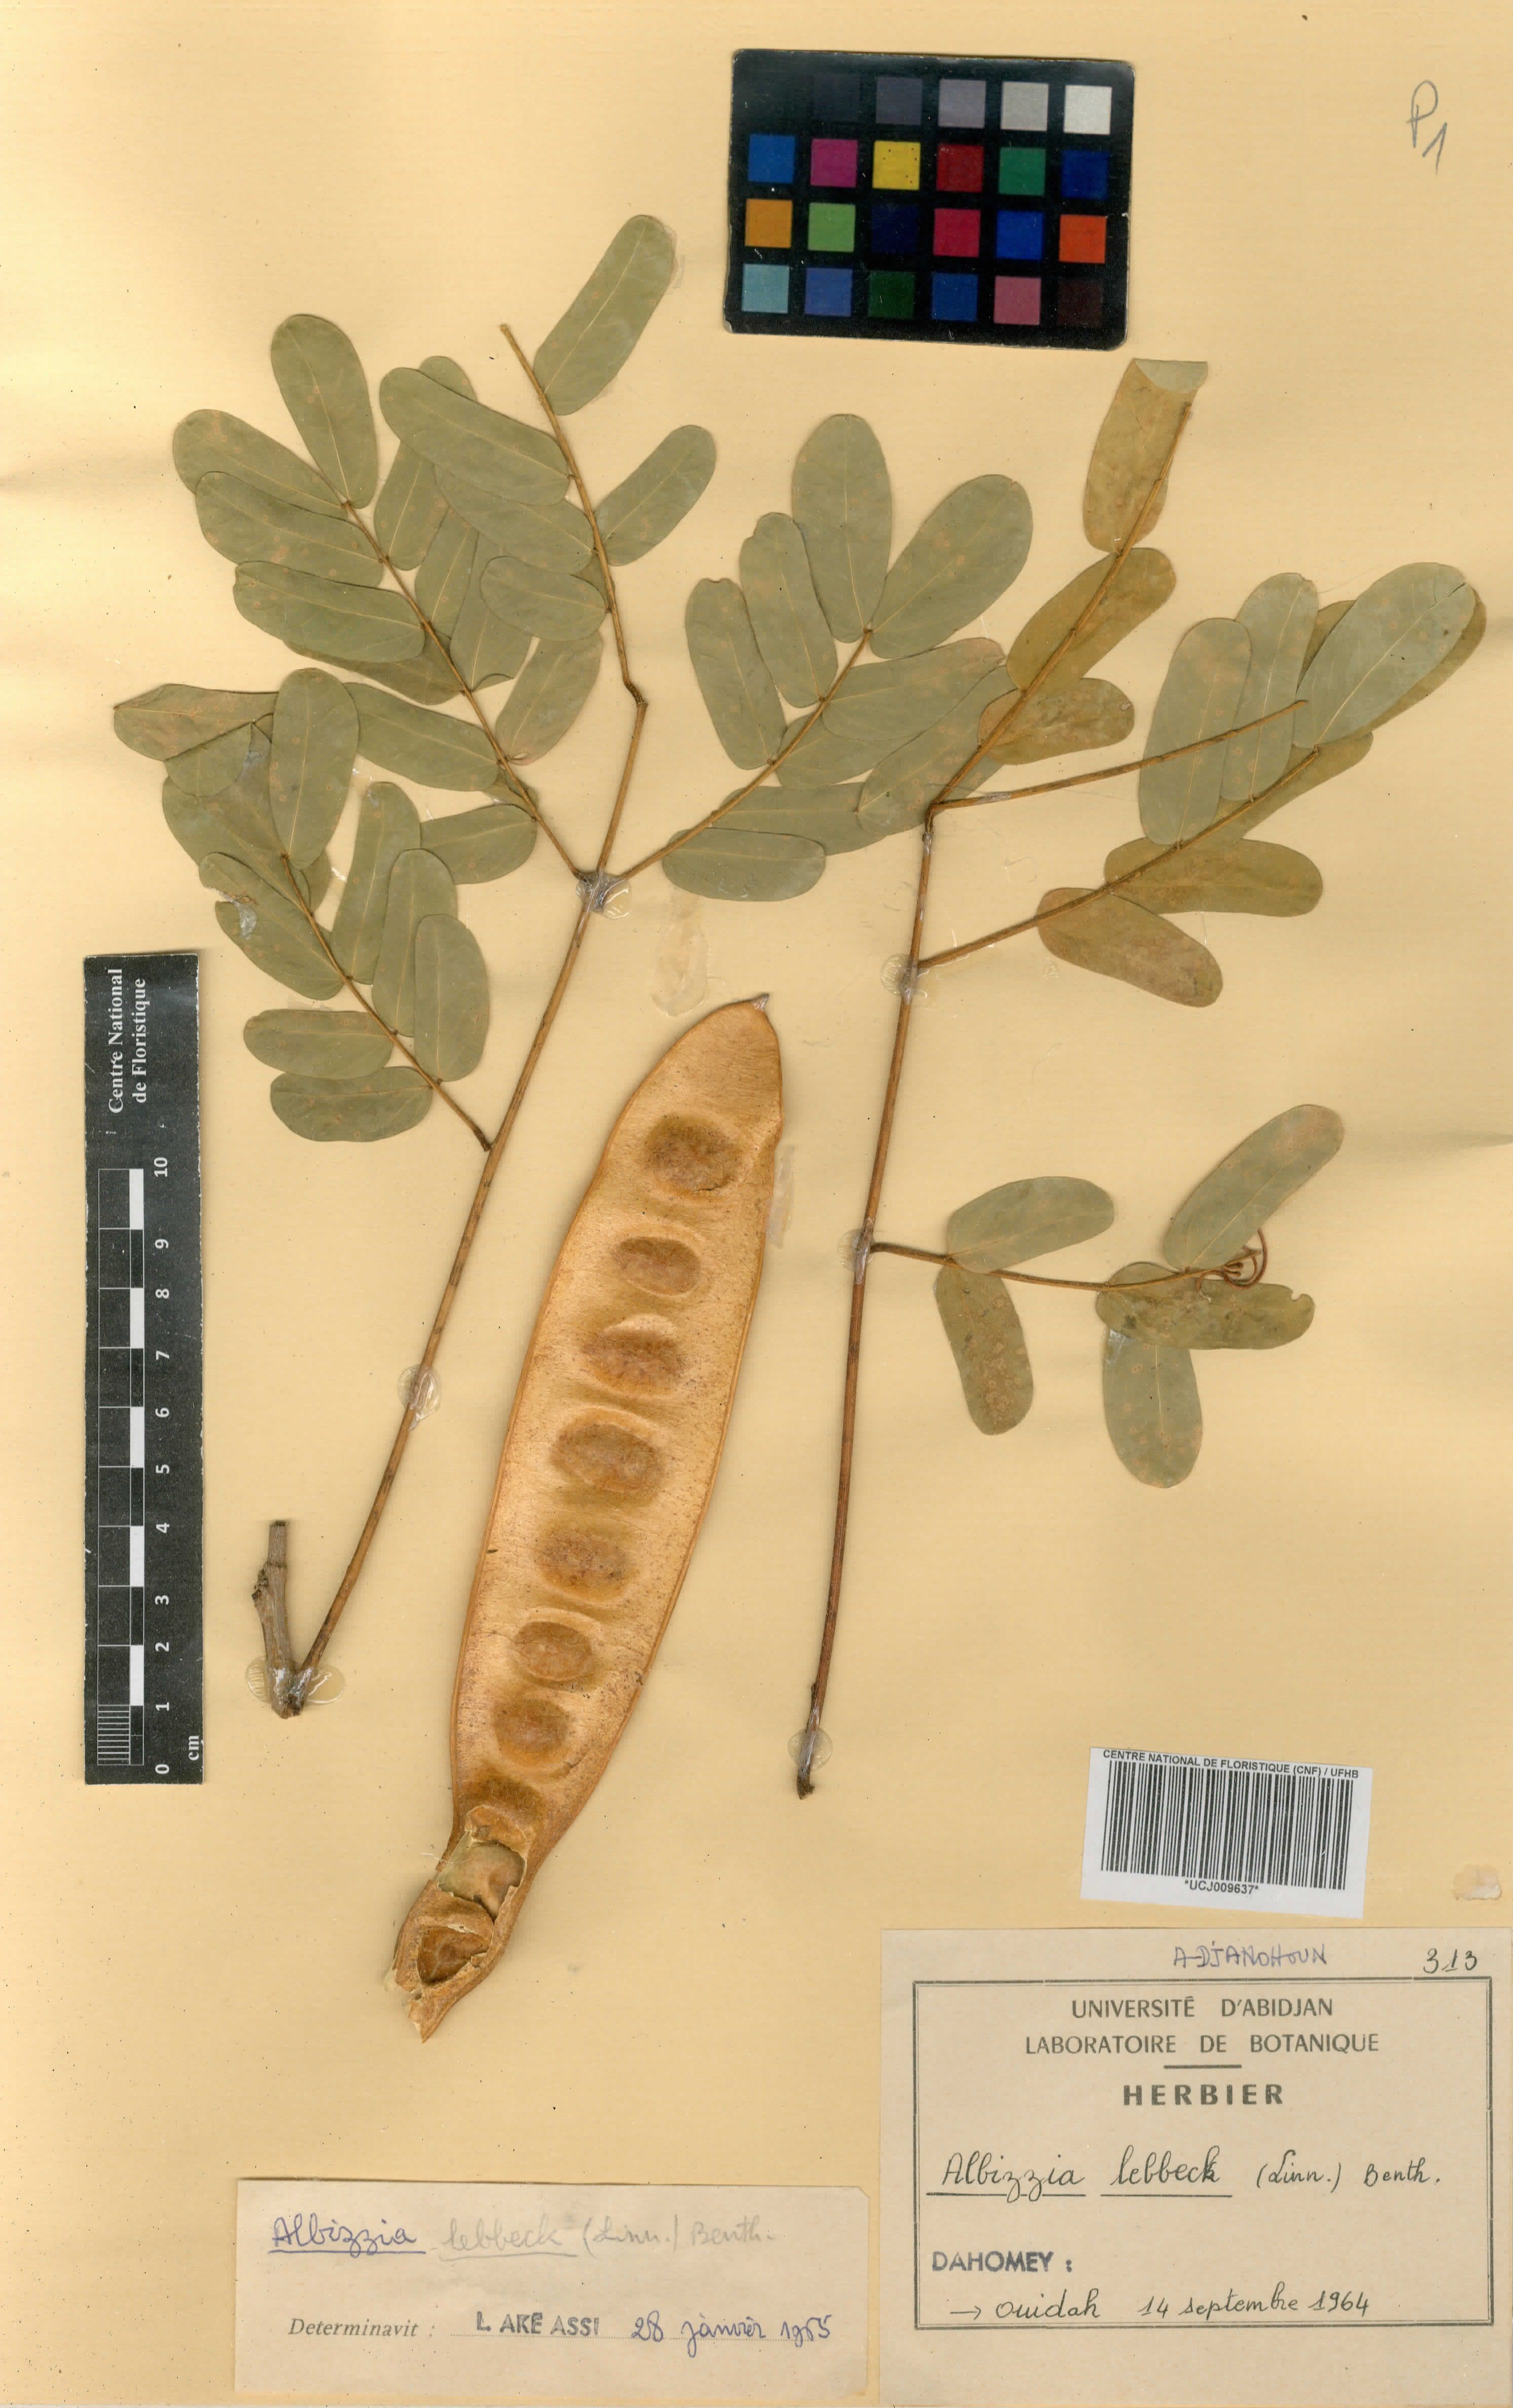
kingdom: Plantae
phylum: Tracheophyta
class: Magnoliopsida
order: Fabales
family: Fabaceae
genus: Albizia
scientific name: Albizia lebbeck
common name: Woman's tongue
